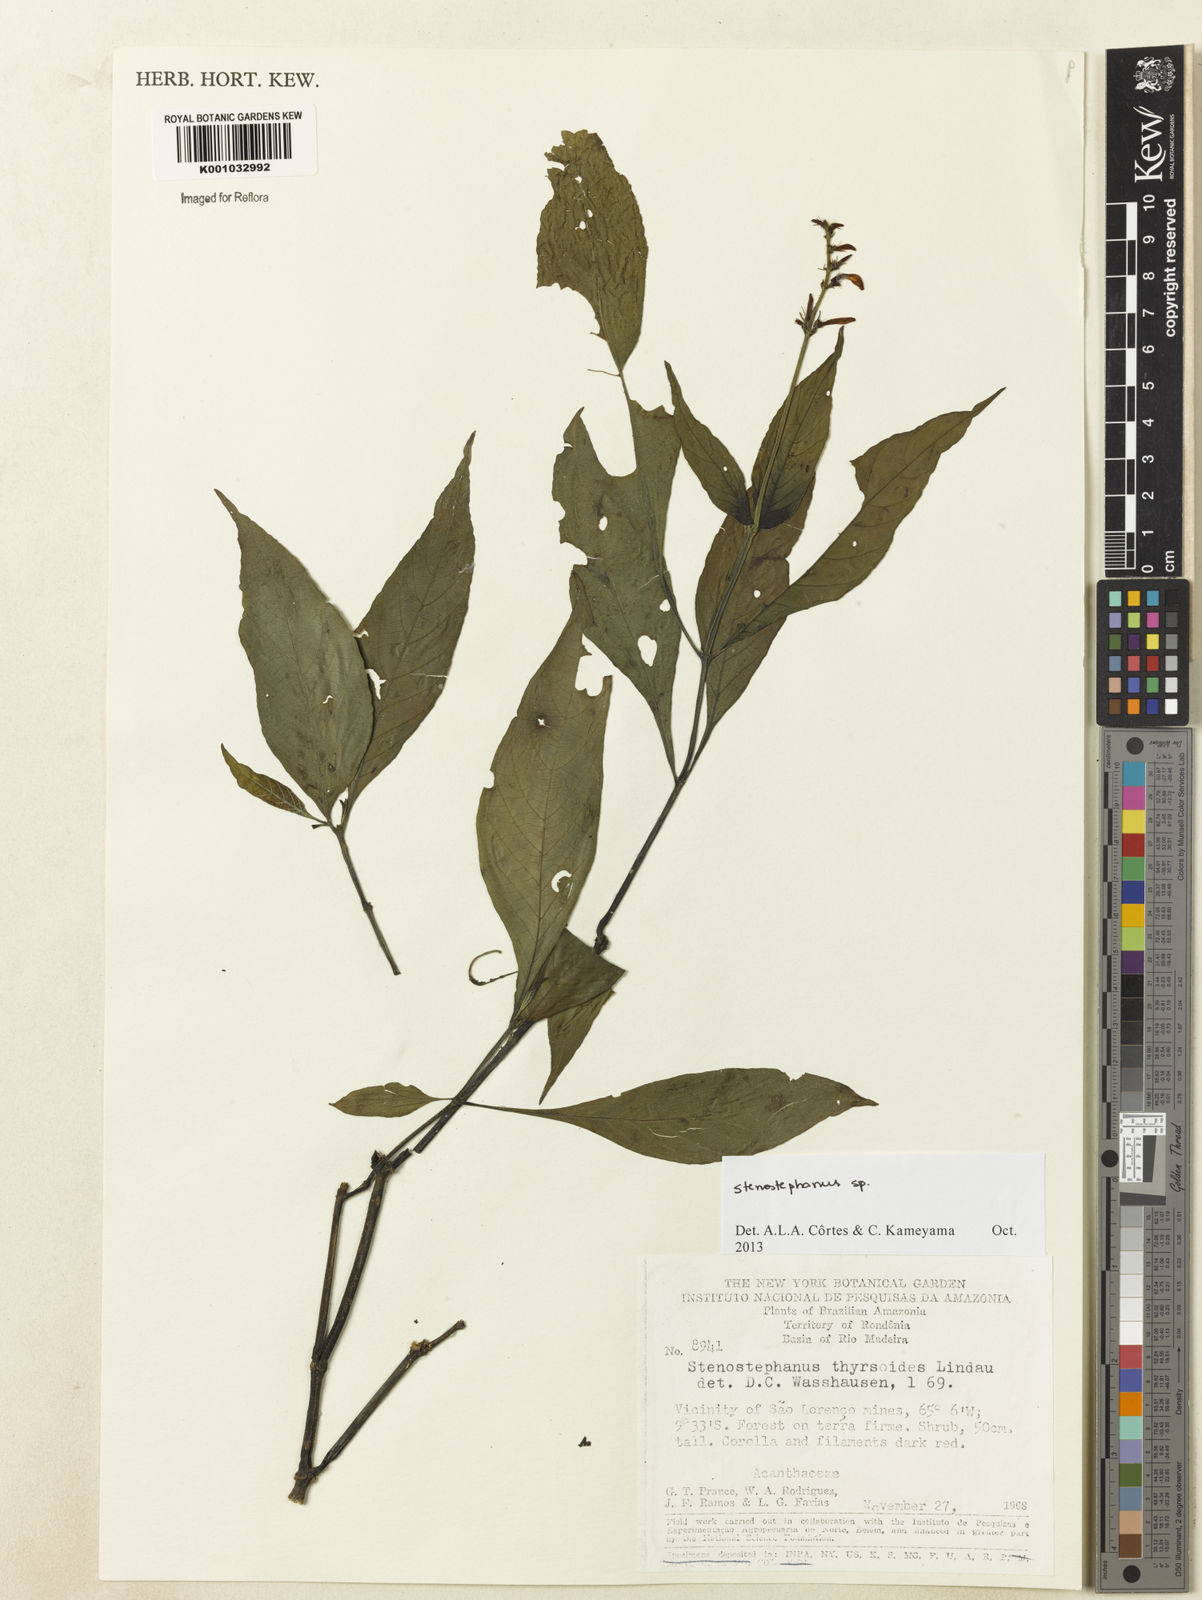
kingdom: Plantae
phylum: Tracheophyta
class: Magnoliopsida
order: Lamiales
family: Acanthaceae
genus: Stenostephanus
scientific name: Stenostephanus
